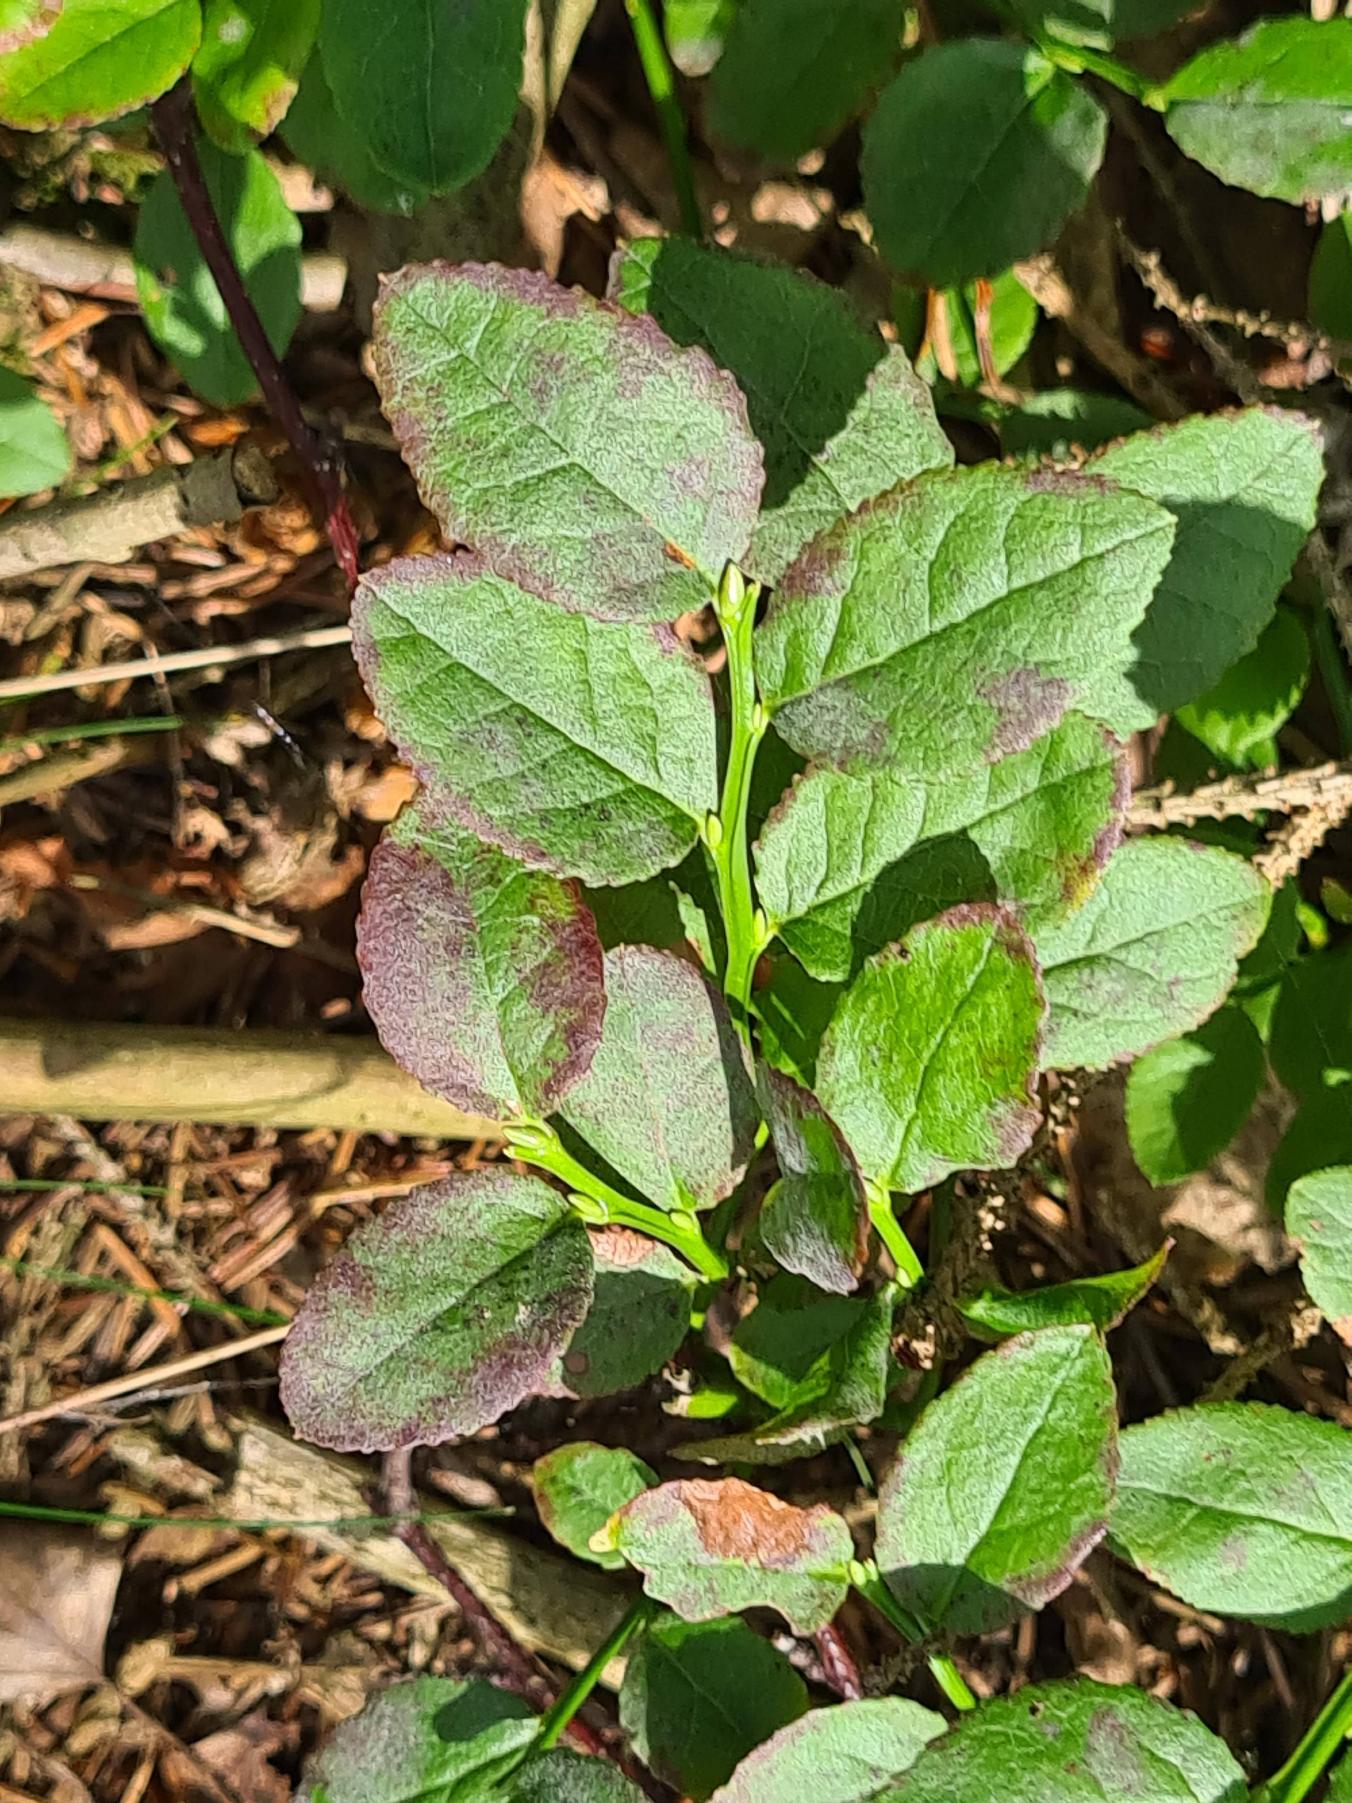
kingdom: Plantae
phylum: Tracheophyta
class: Magnoliopsida
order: Ericales
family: Ericaceae
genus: Vaccinium
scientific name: Vaccinium myrtillus
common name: Blåbær
